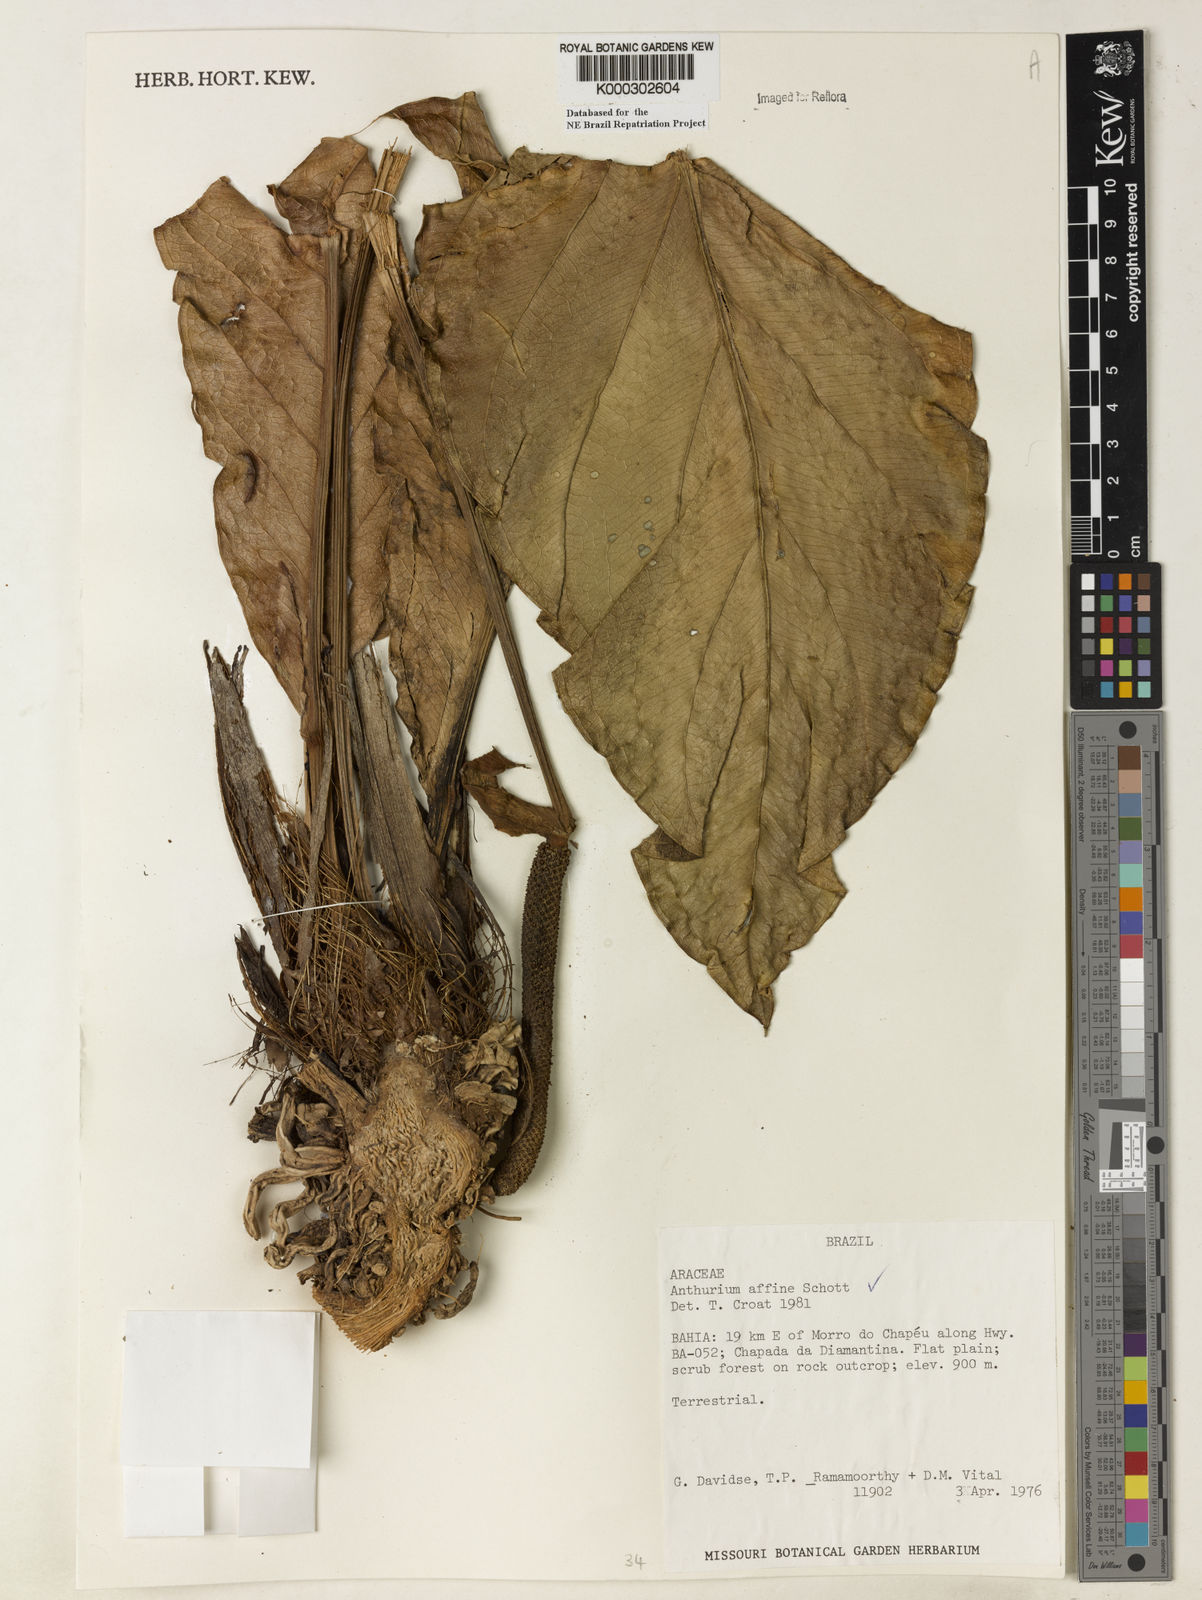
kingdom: Plantae
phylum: Tracheophyta
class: Liliopsida
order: Alismatales
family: Araceae
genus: Anthurium
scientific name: Anthurium affine
